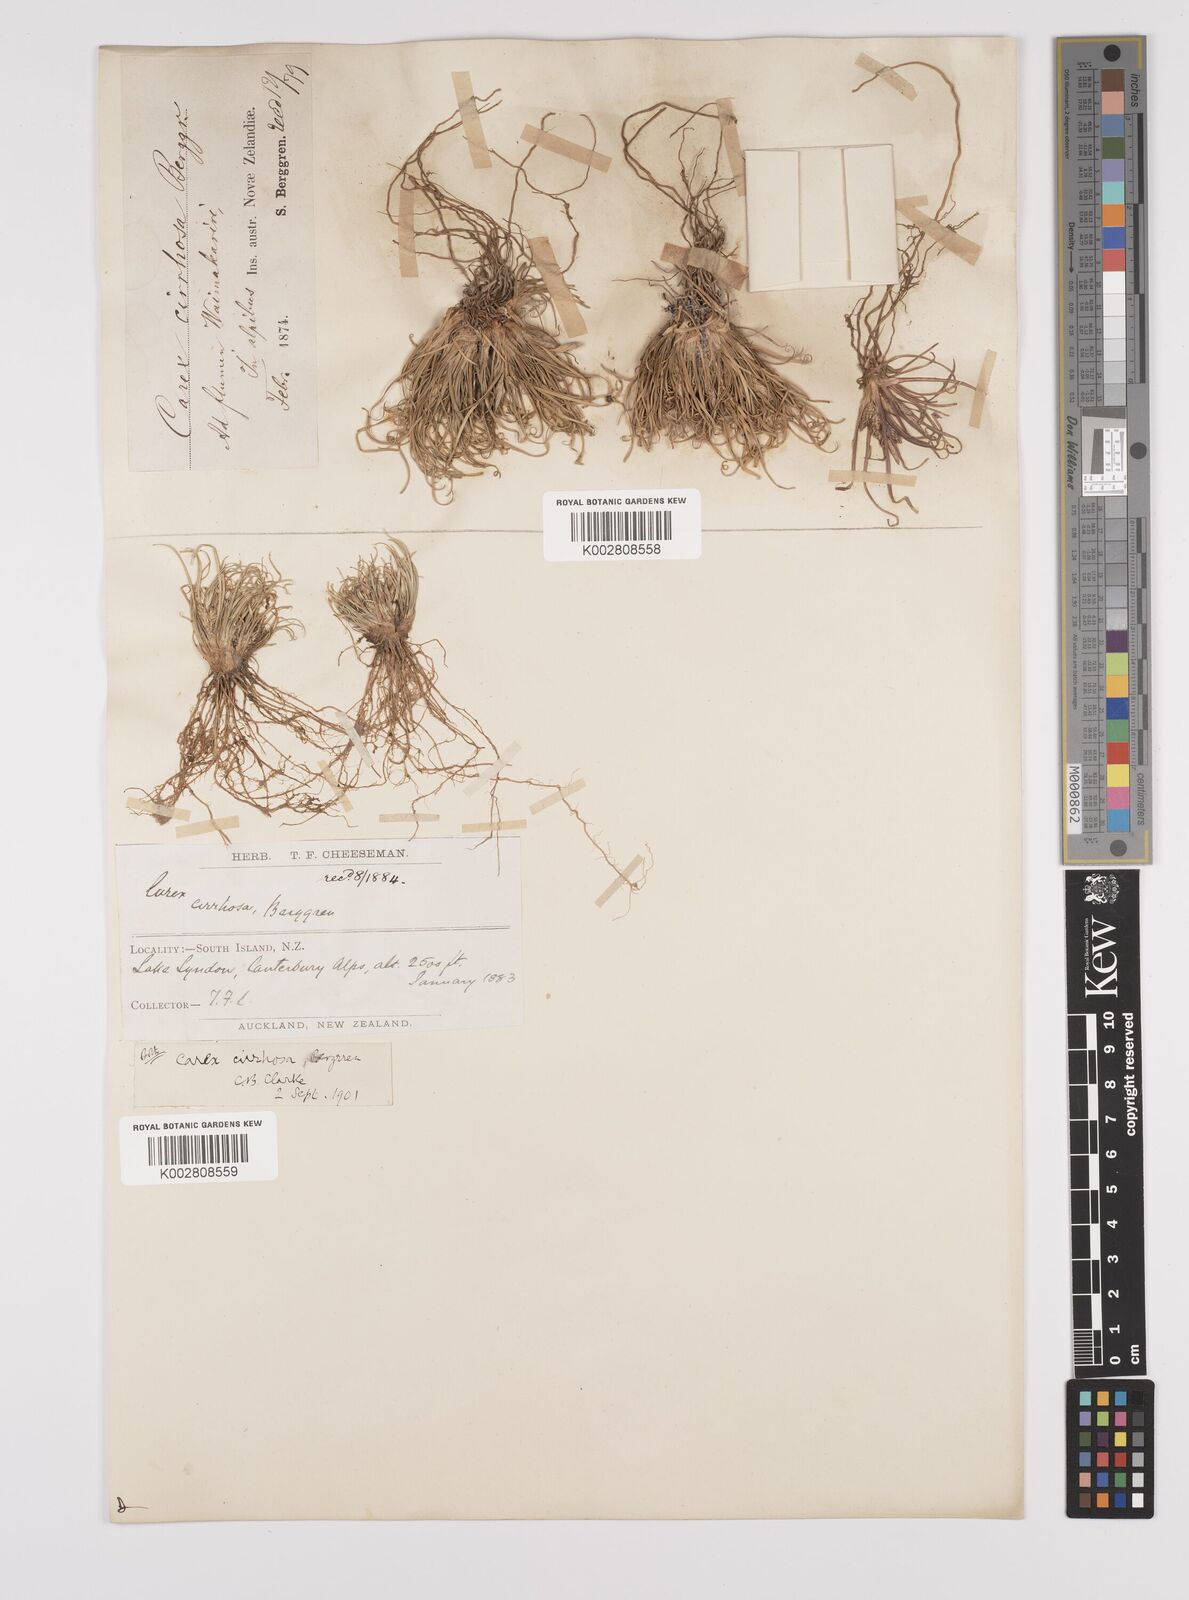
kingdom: Plantae
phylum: Tracheophyta
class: Liliopsida
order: Poales
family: Cyperaceae
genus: Carex
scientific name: Carex cirrhosa
